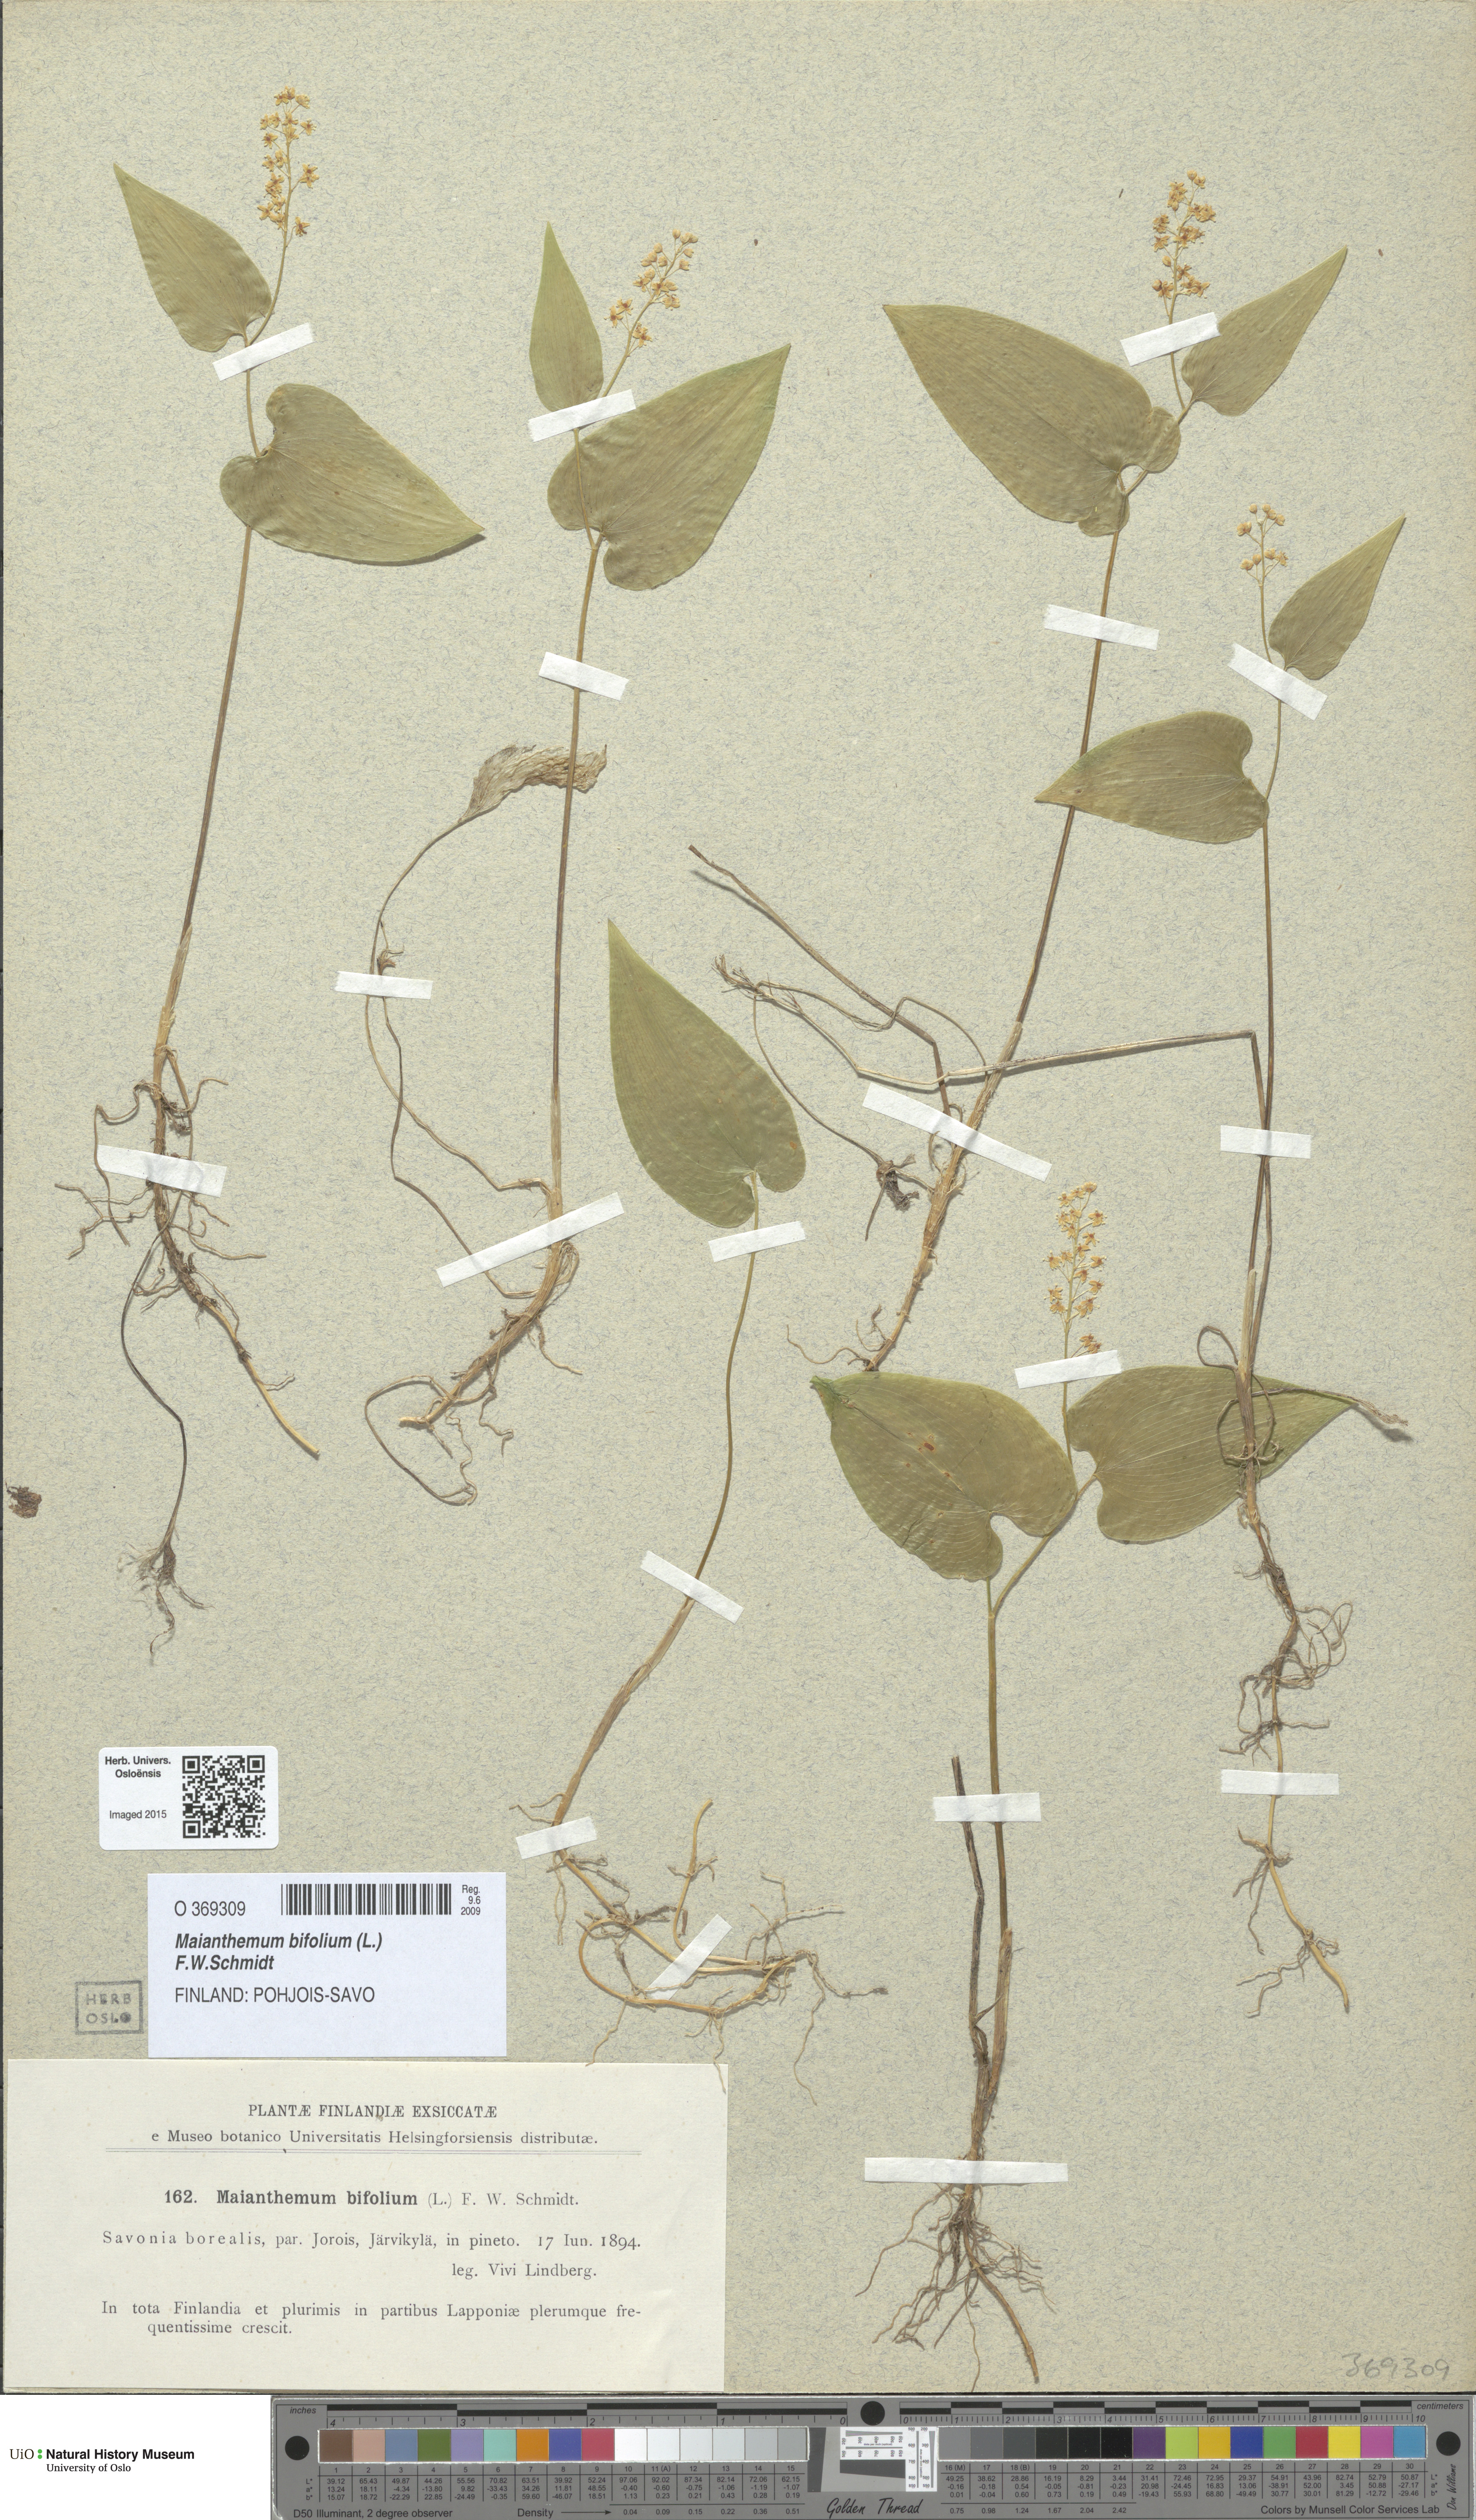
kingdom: Plantae
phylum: Tracheophyta
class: Liliopsida
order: Asparagales
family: Asparagaceae
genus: Maianthemum
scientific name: Maianthemum bifolium
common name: May lily
